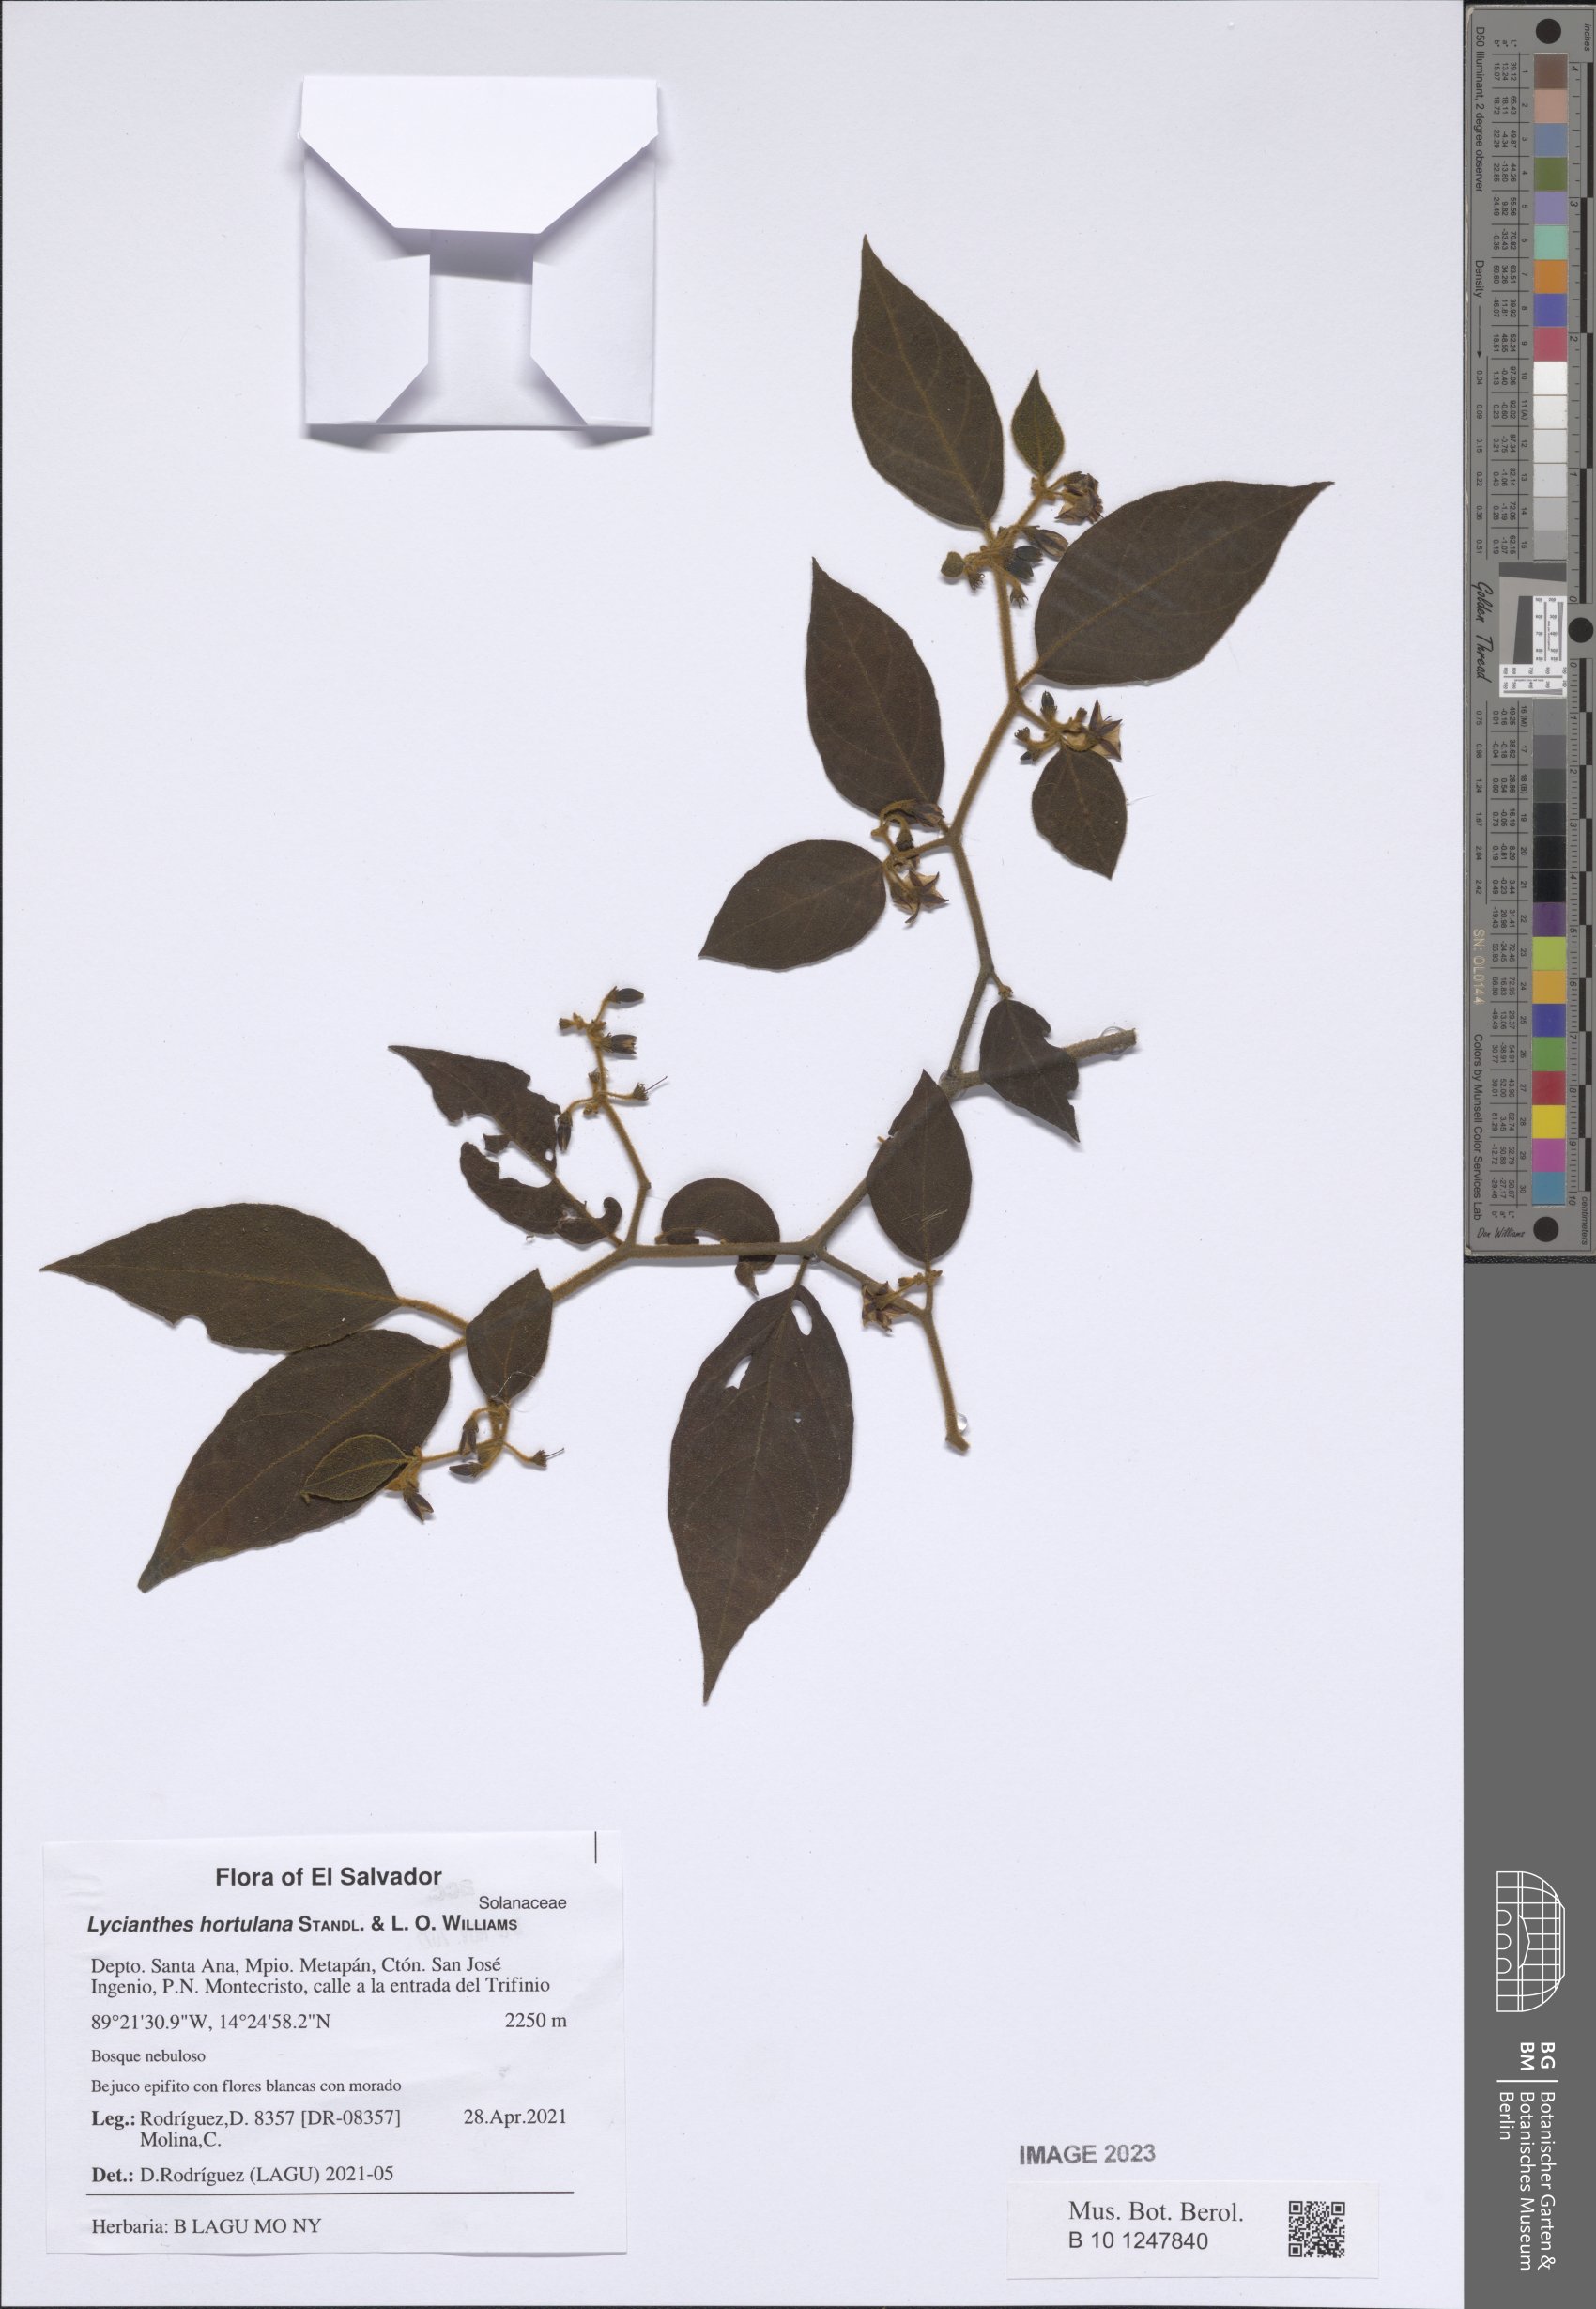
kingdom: Plantae
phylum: Tracheophyta
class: Magnoliopsida
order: Solanales
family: Solanaceae
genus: Lycianthes
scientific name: Lycianthes hortulana
